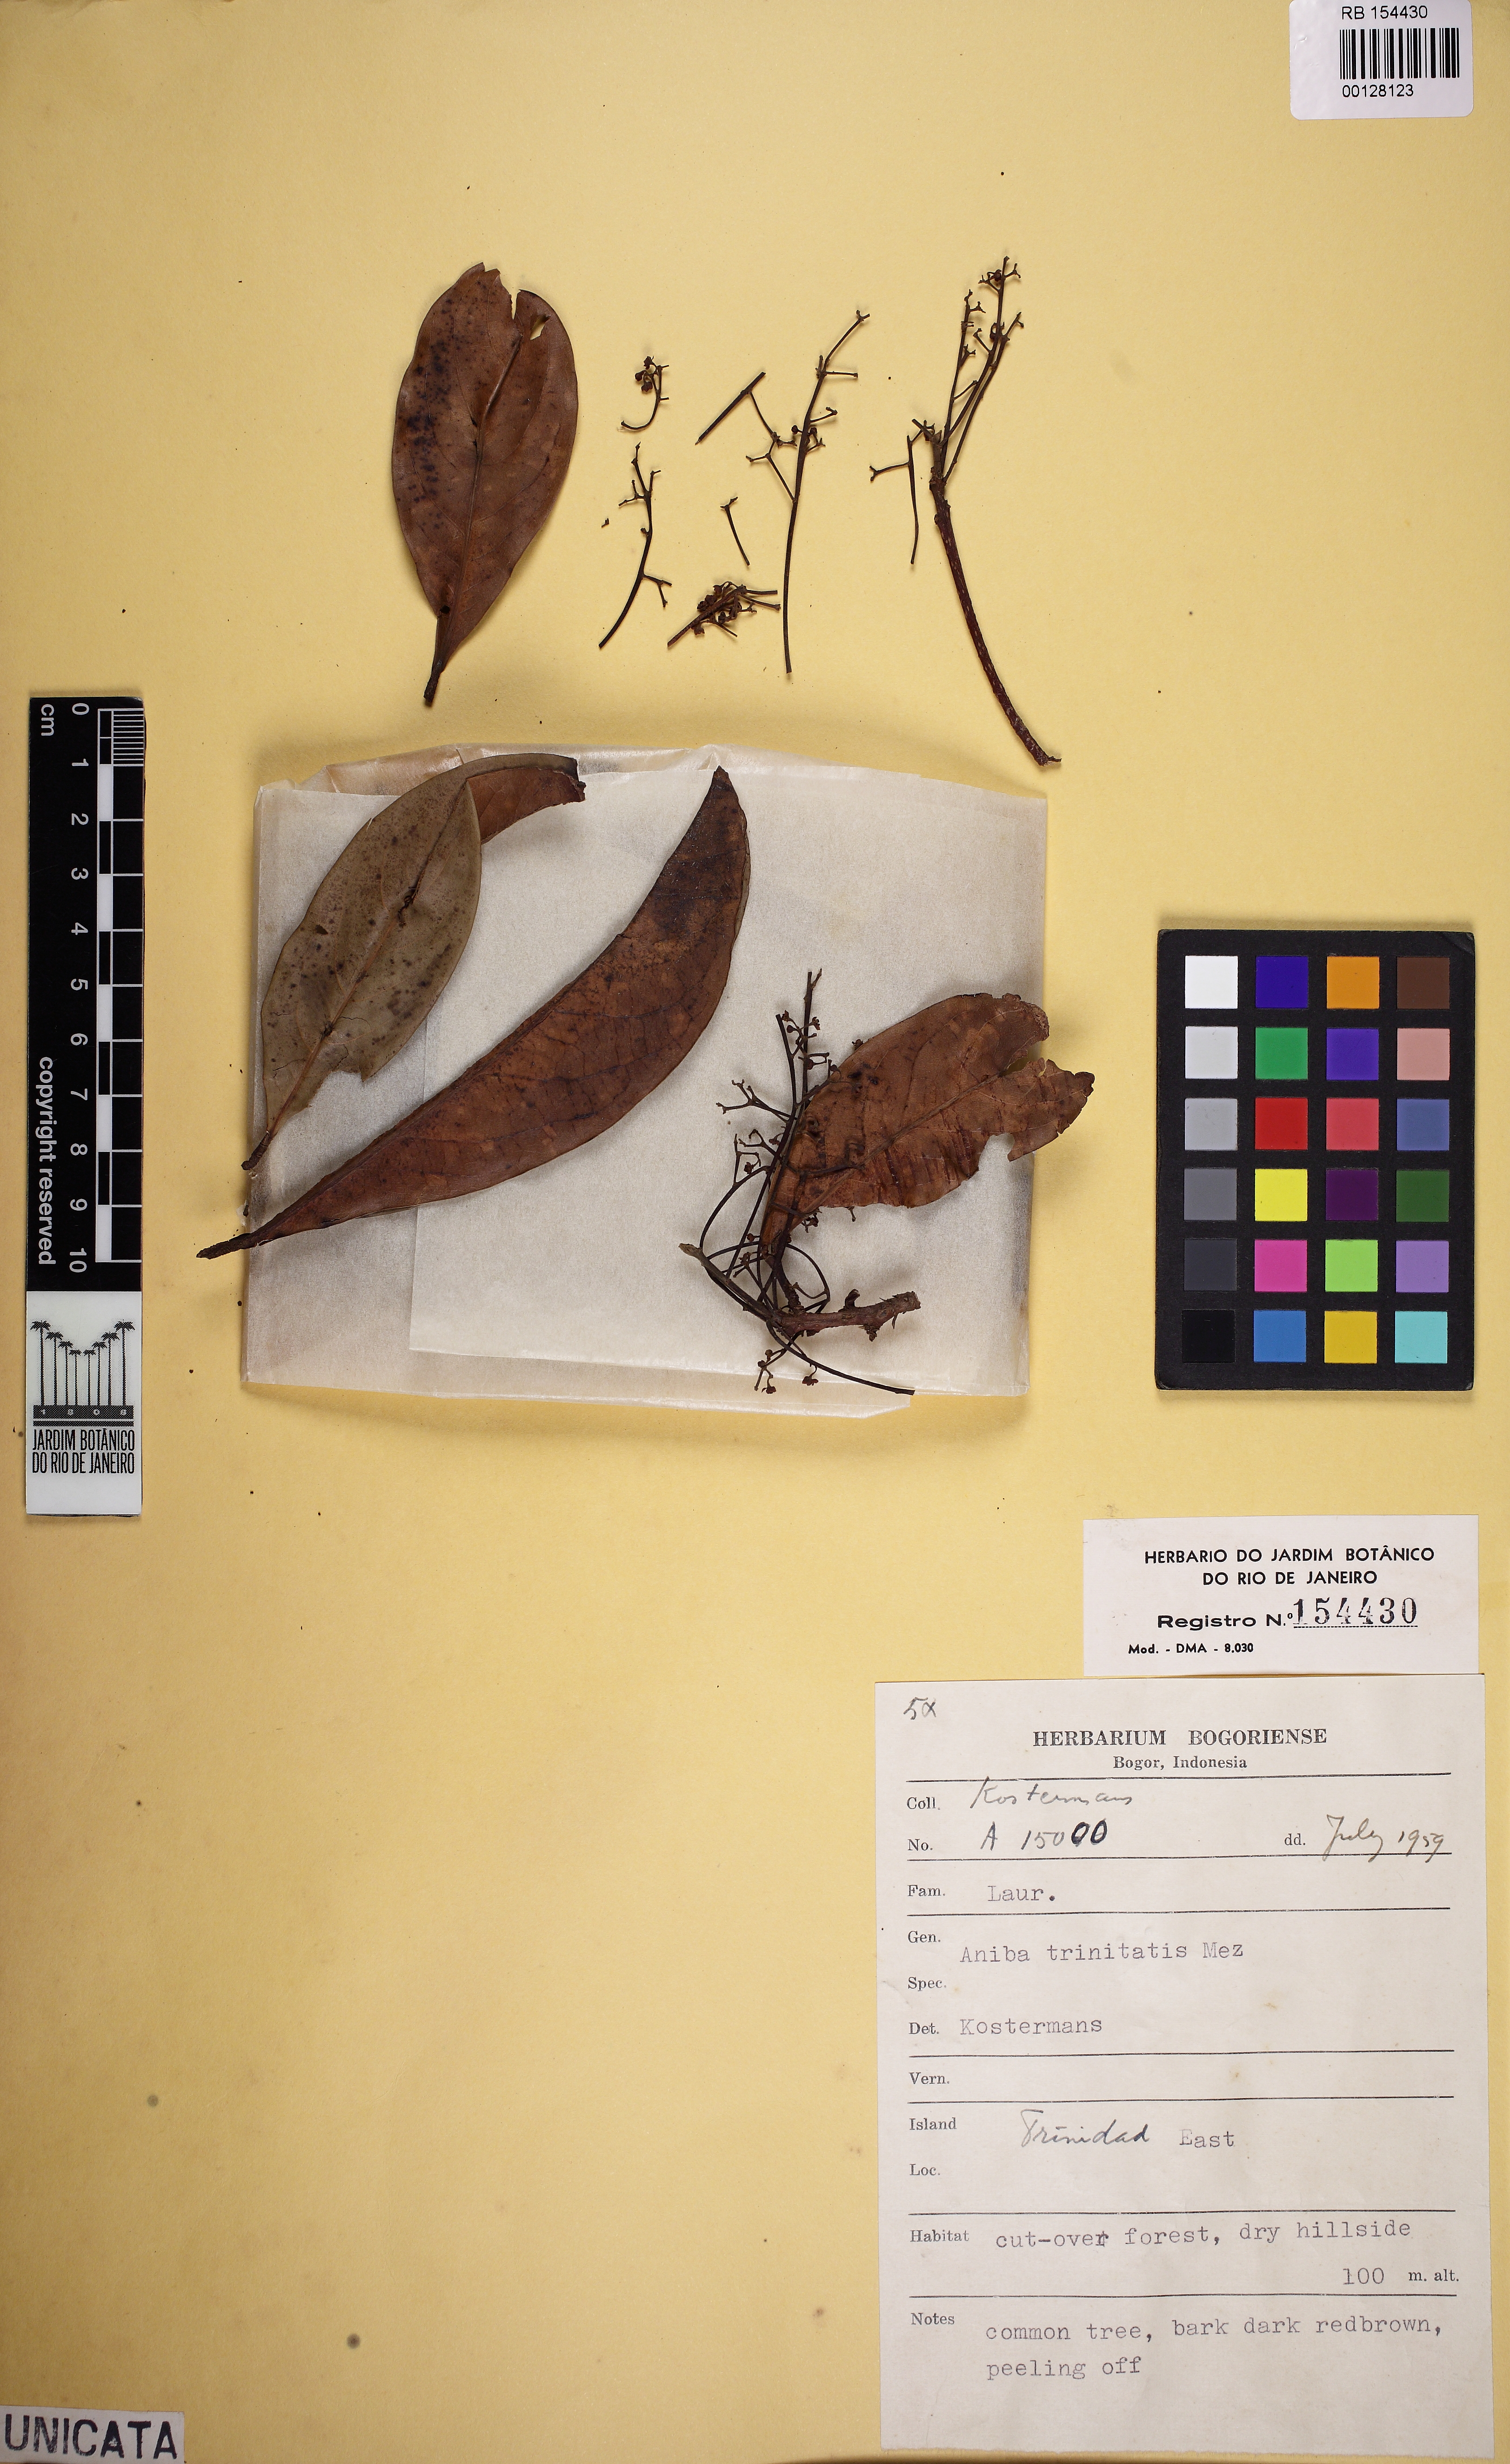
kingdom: Plantae
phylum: Tracheophyta
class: Magnoliopsida
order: Laurales
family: Lauraceae
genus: Aniba
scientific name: Aniba citrifolia
